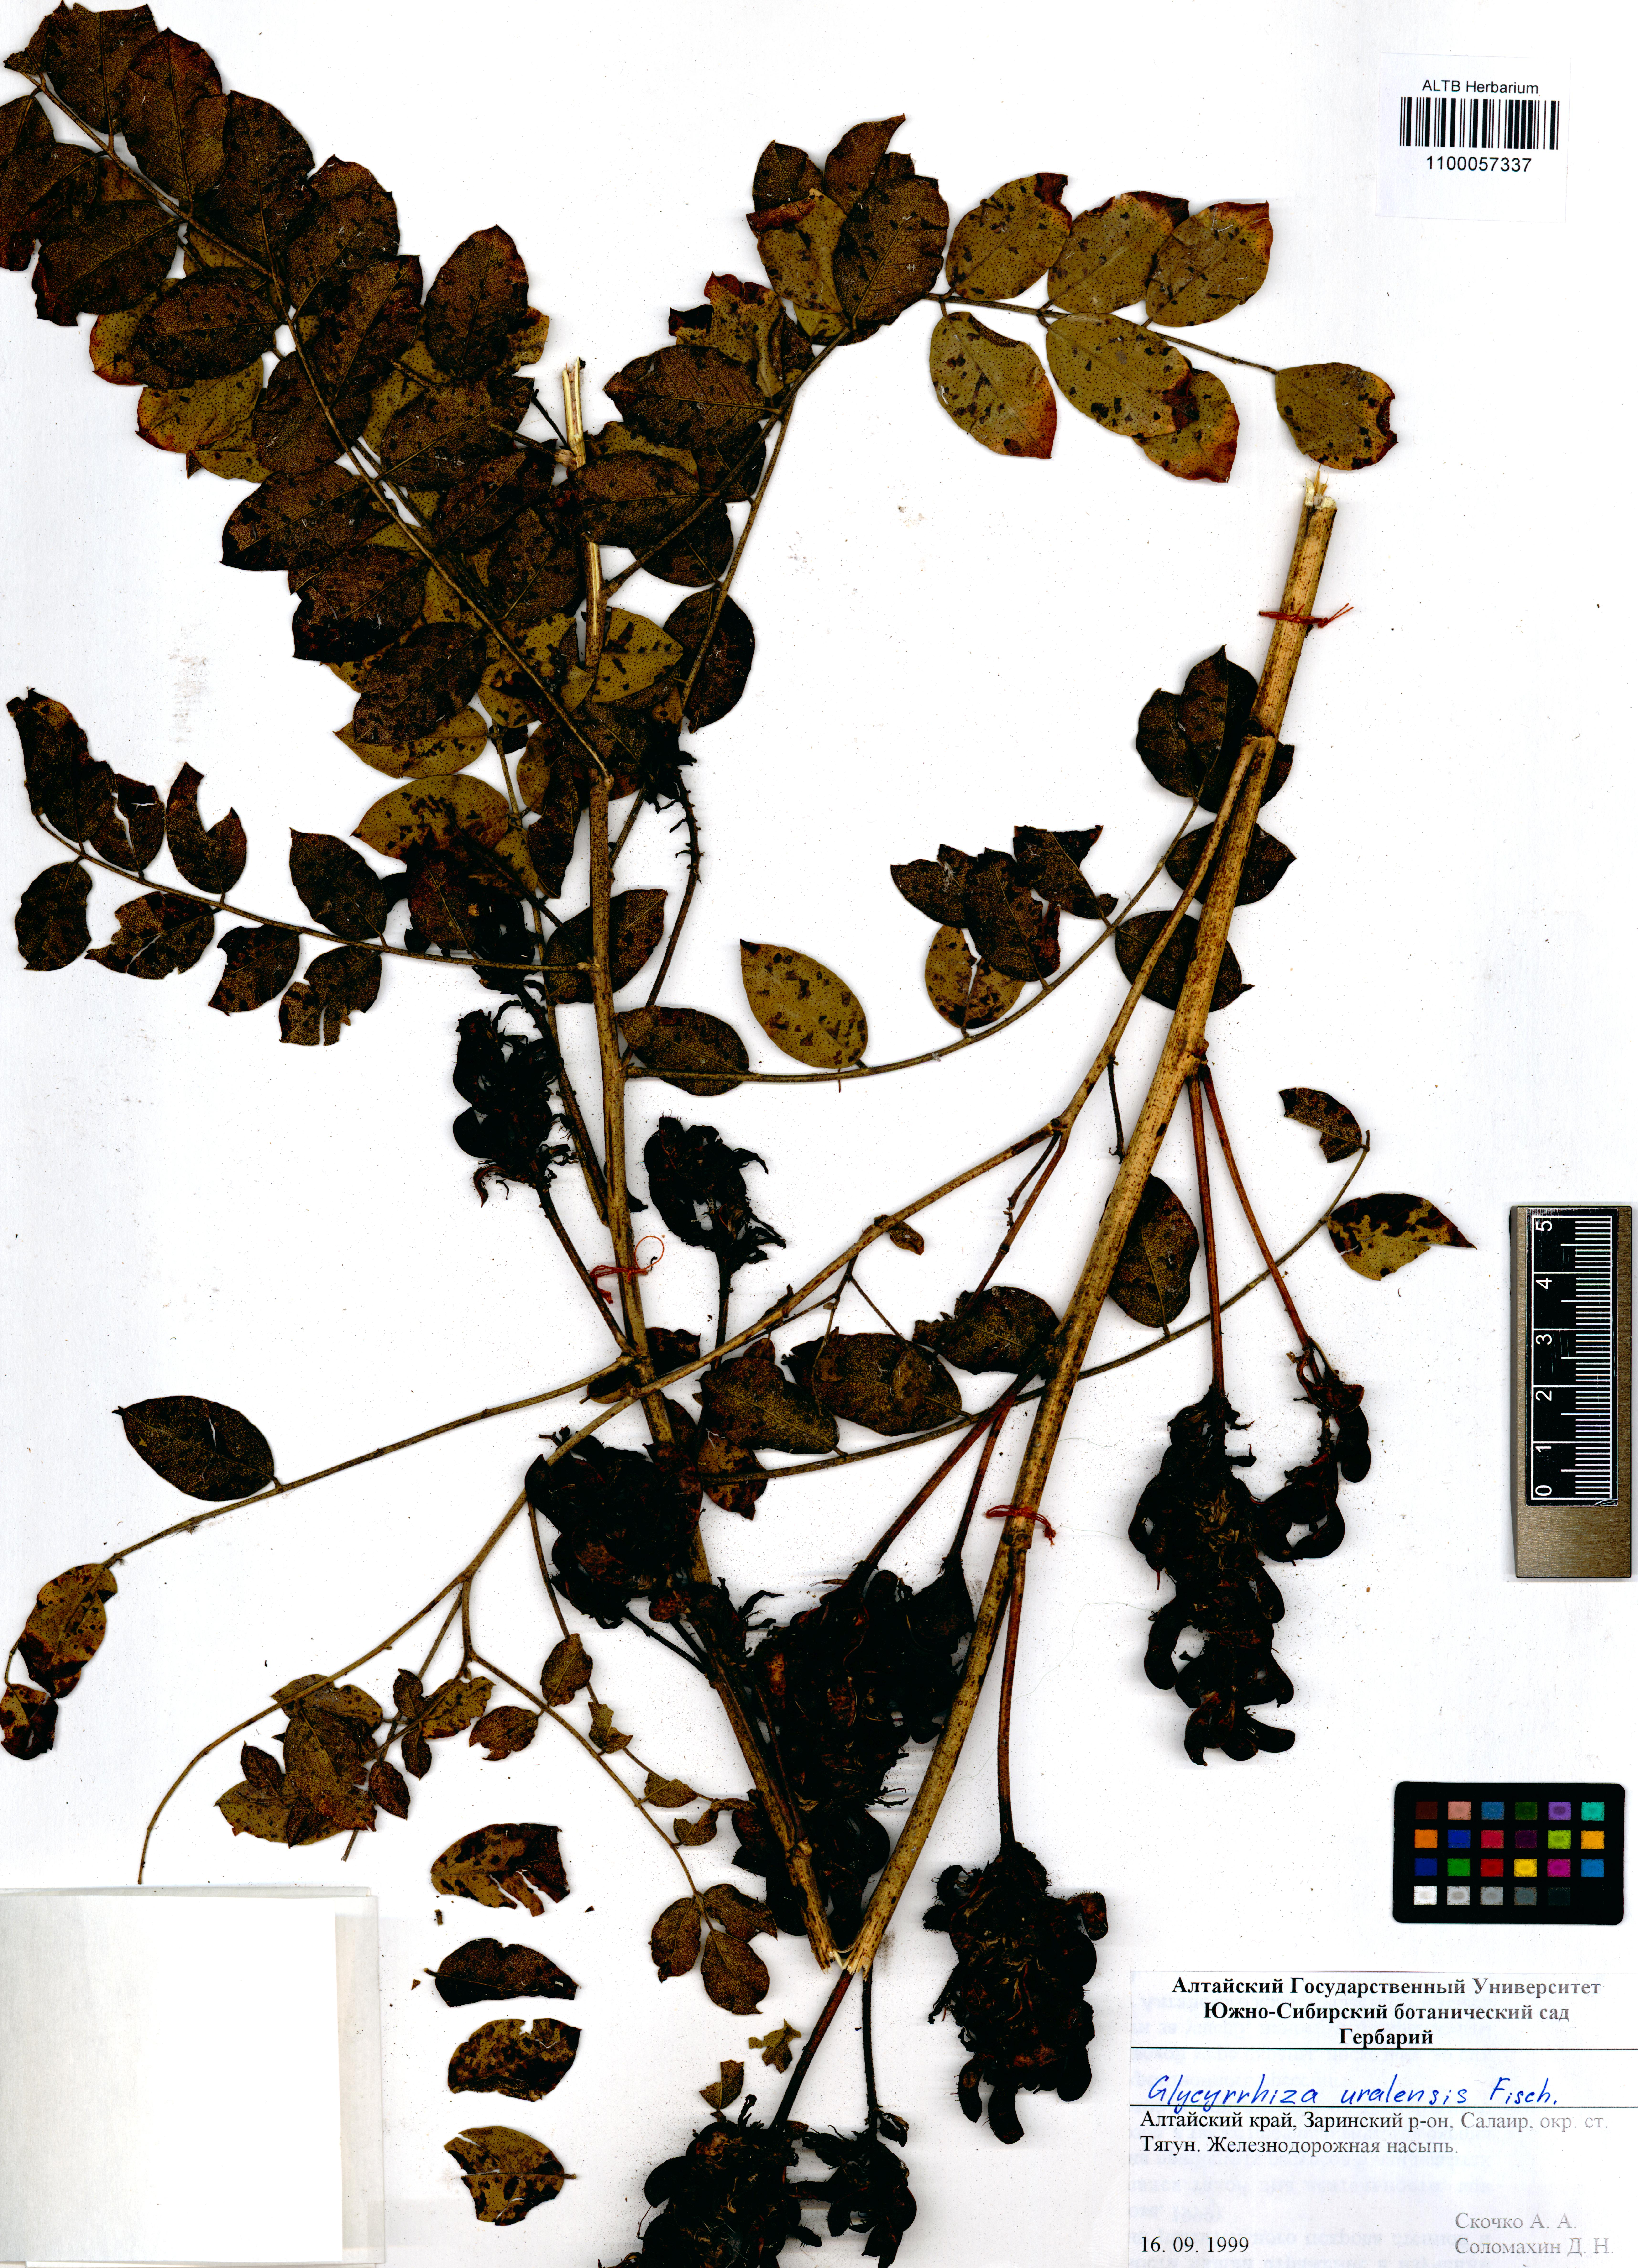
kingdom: Plantae
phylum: Tracheophyta
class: Magnoliopsida
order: Fabales
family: Fabaceae
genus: Glycyrrhiza
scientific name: Glycyrrhiza uralensis
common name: Chinese licorice
